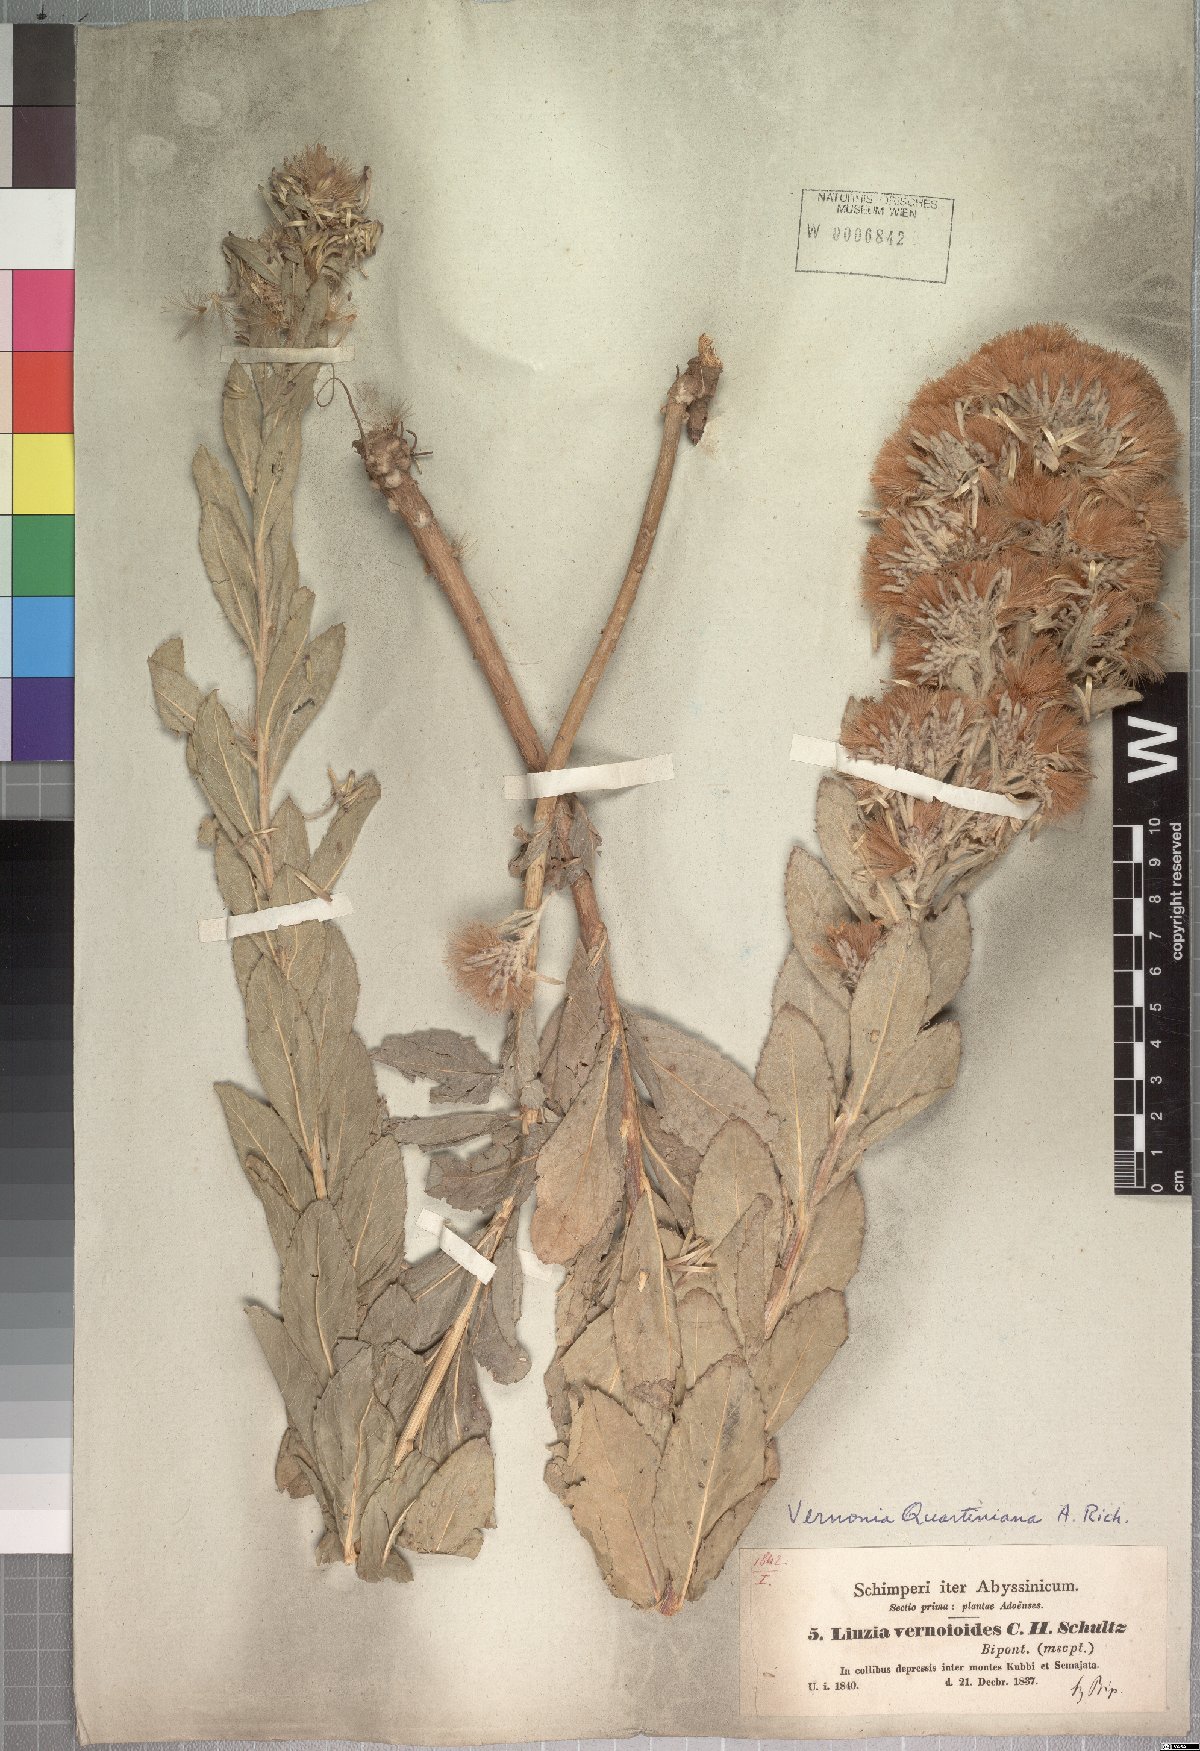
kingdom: Plantae
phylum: Tracheophyta
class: Magnoliopsida
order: Asterales
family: Asteraceae
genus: Vernonia
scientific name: Vernonia congolensis
